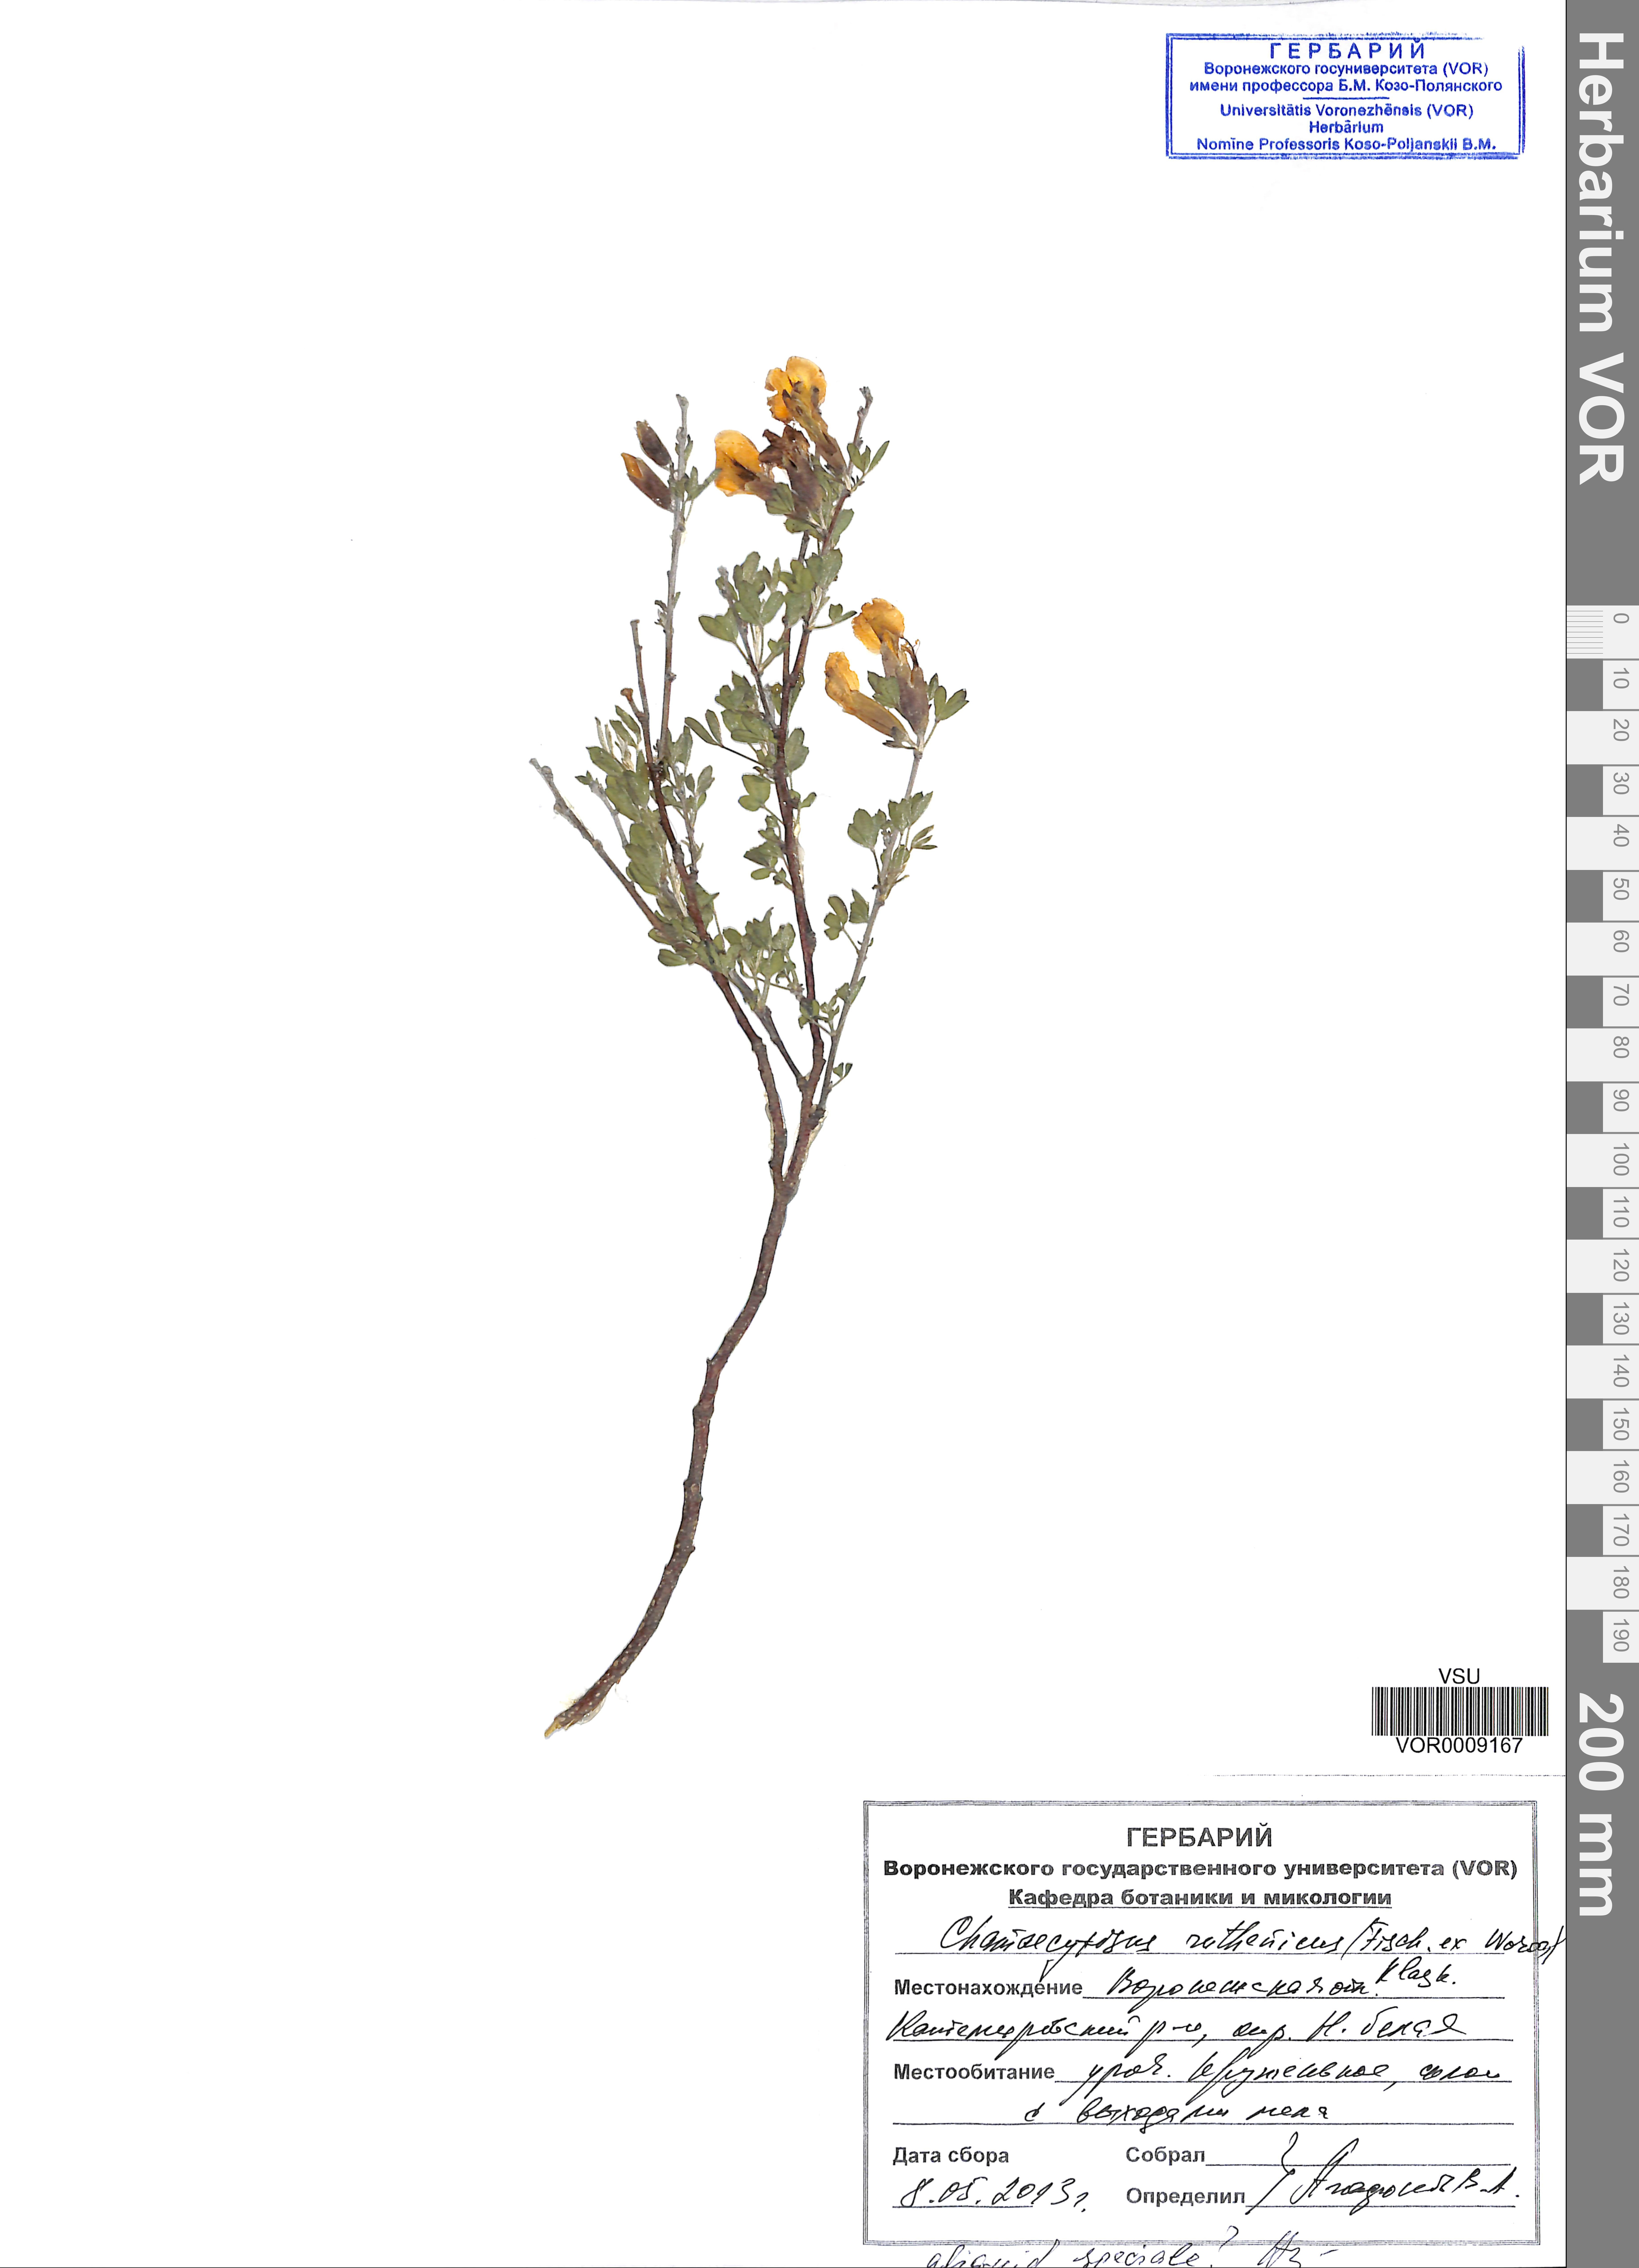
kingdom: Plantae
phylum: Tracheophyta
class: Magnoliopsida
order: Fabales
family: Fabaceae
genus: Chamaecytisus
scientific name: Chamaecytisus ruthenicus
